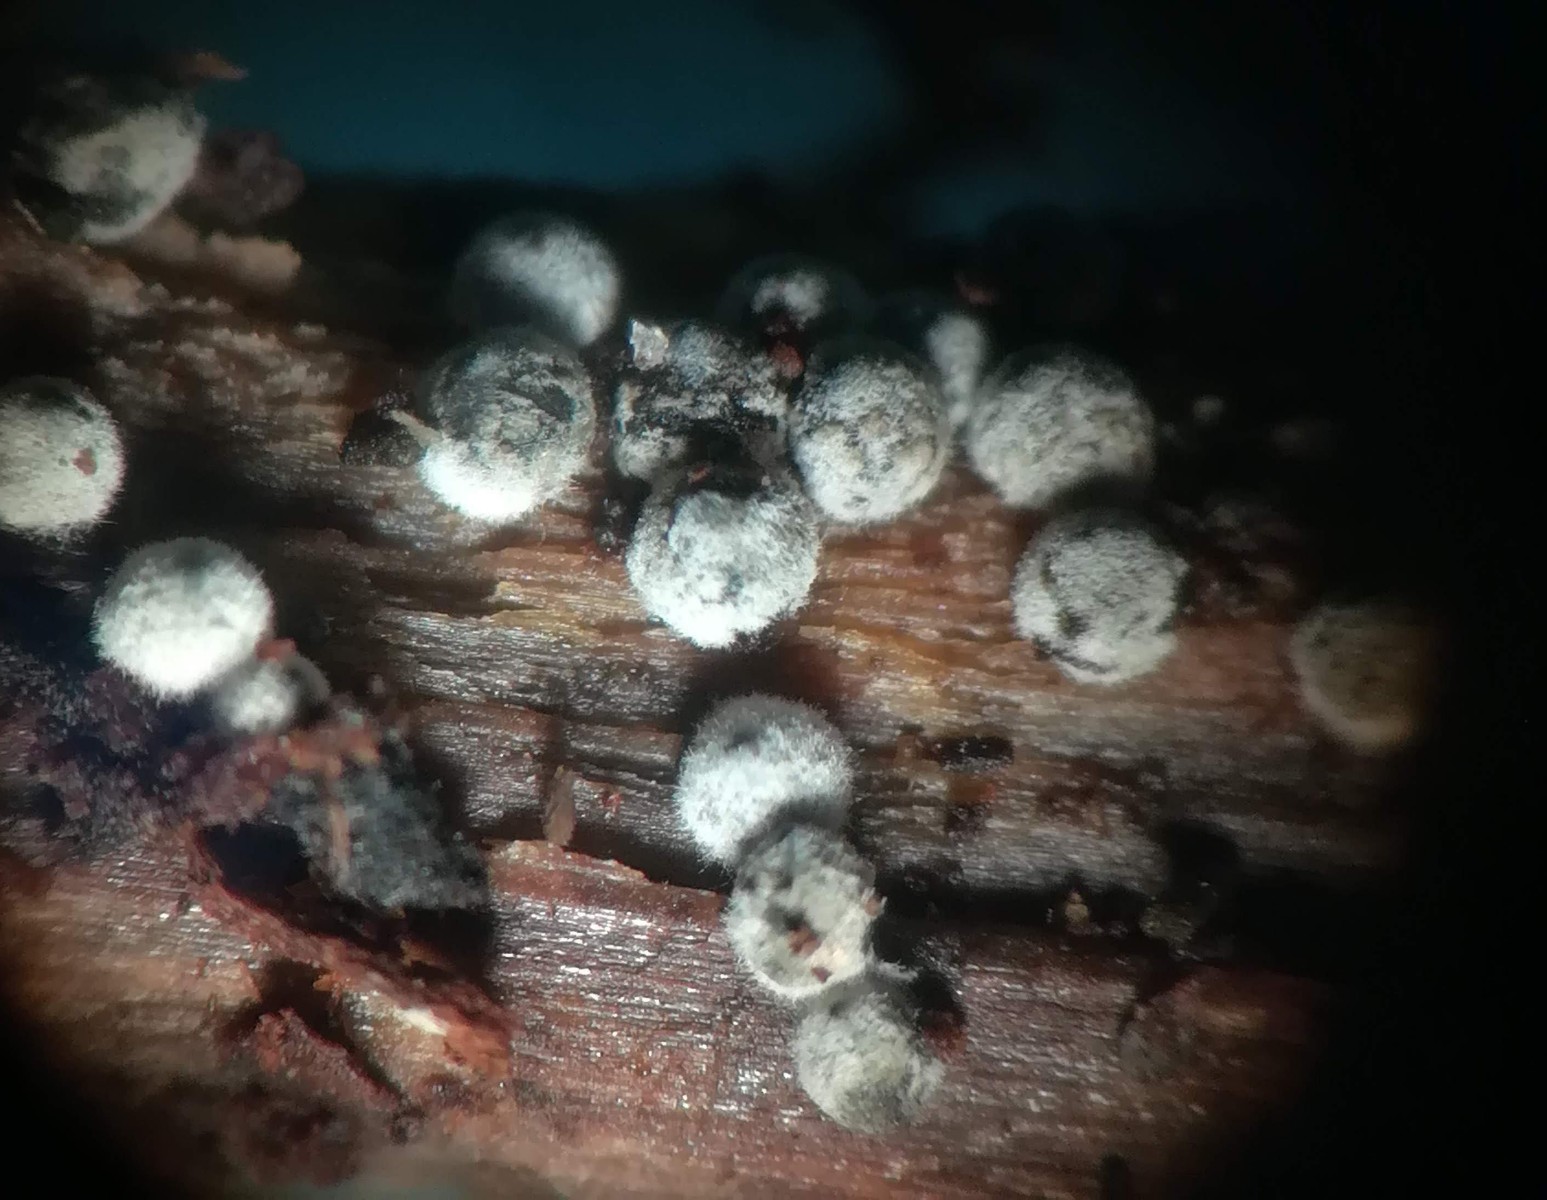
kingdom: Fungi
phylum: Ascomycota
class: Sordariomycetes
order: Sordariales
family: Lasiosphaeriaceae
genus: Lasiosphaeria
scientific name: Lasiosphaeria ovina
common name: fåre-kernesvamp
